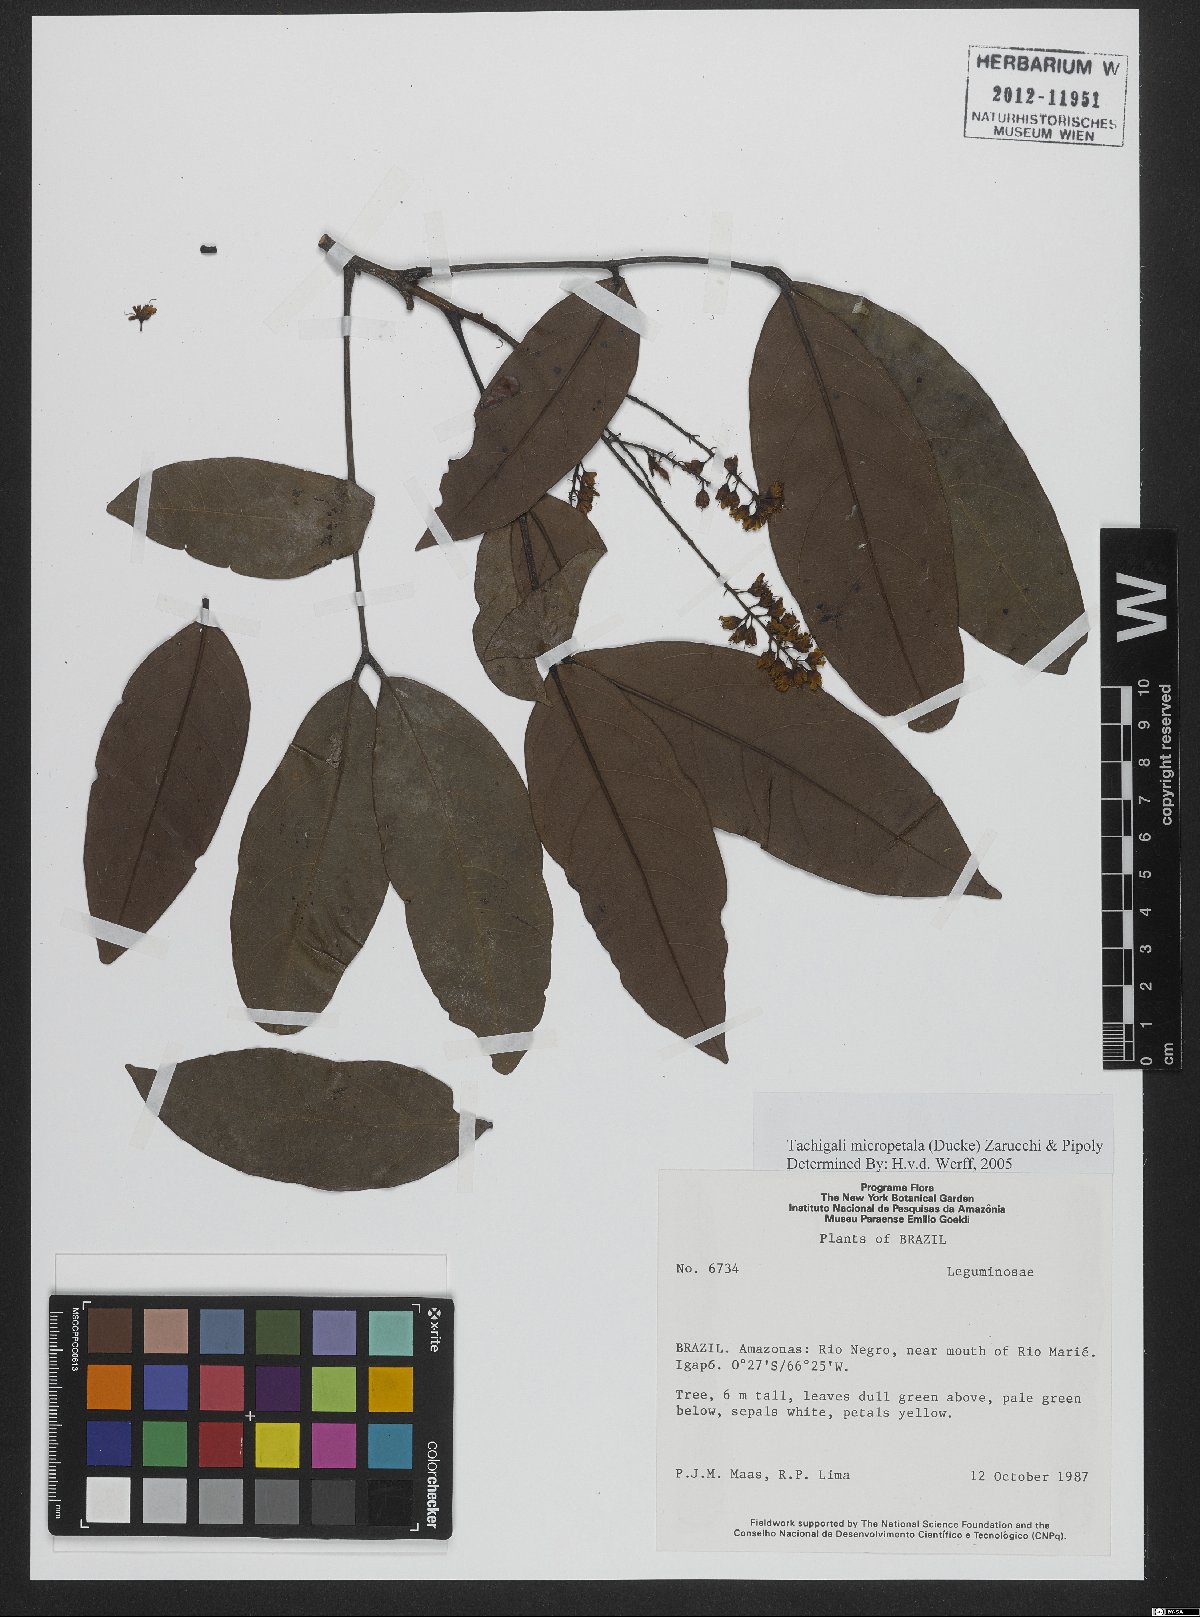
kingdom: Plantae
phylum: Tracheophyta
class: Magnoliopsida
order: Fabales
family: Fabaceae
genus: Tachigali
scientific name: Tachigali micropetala
